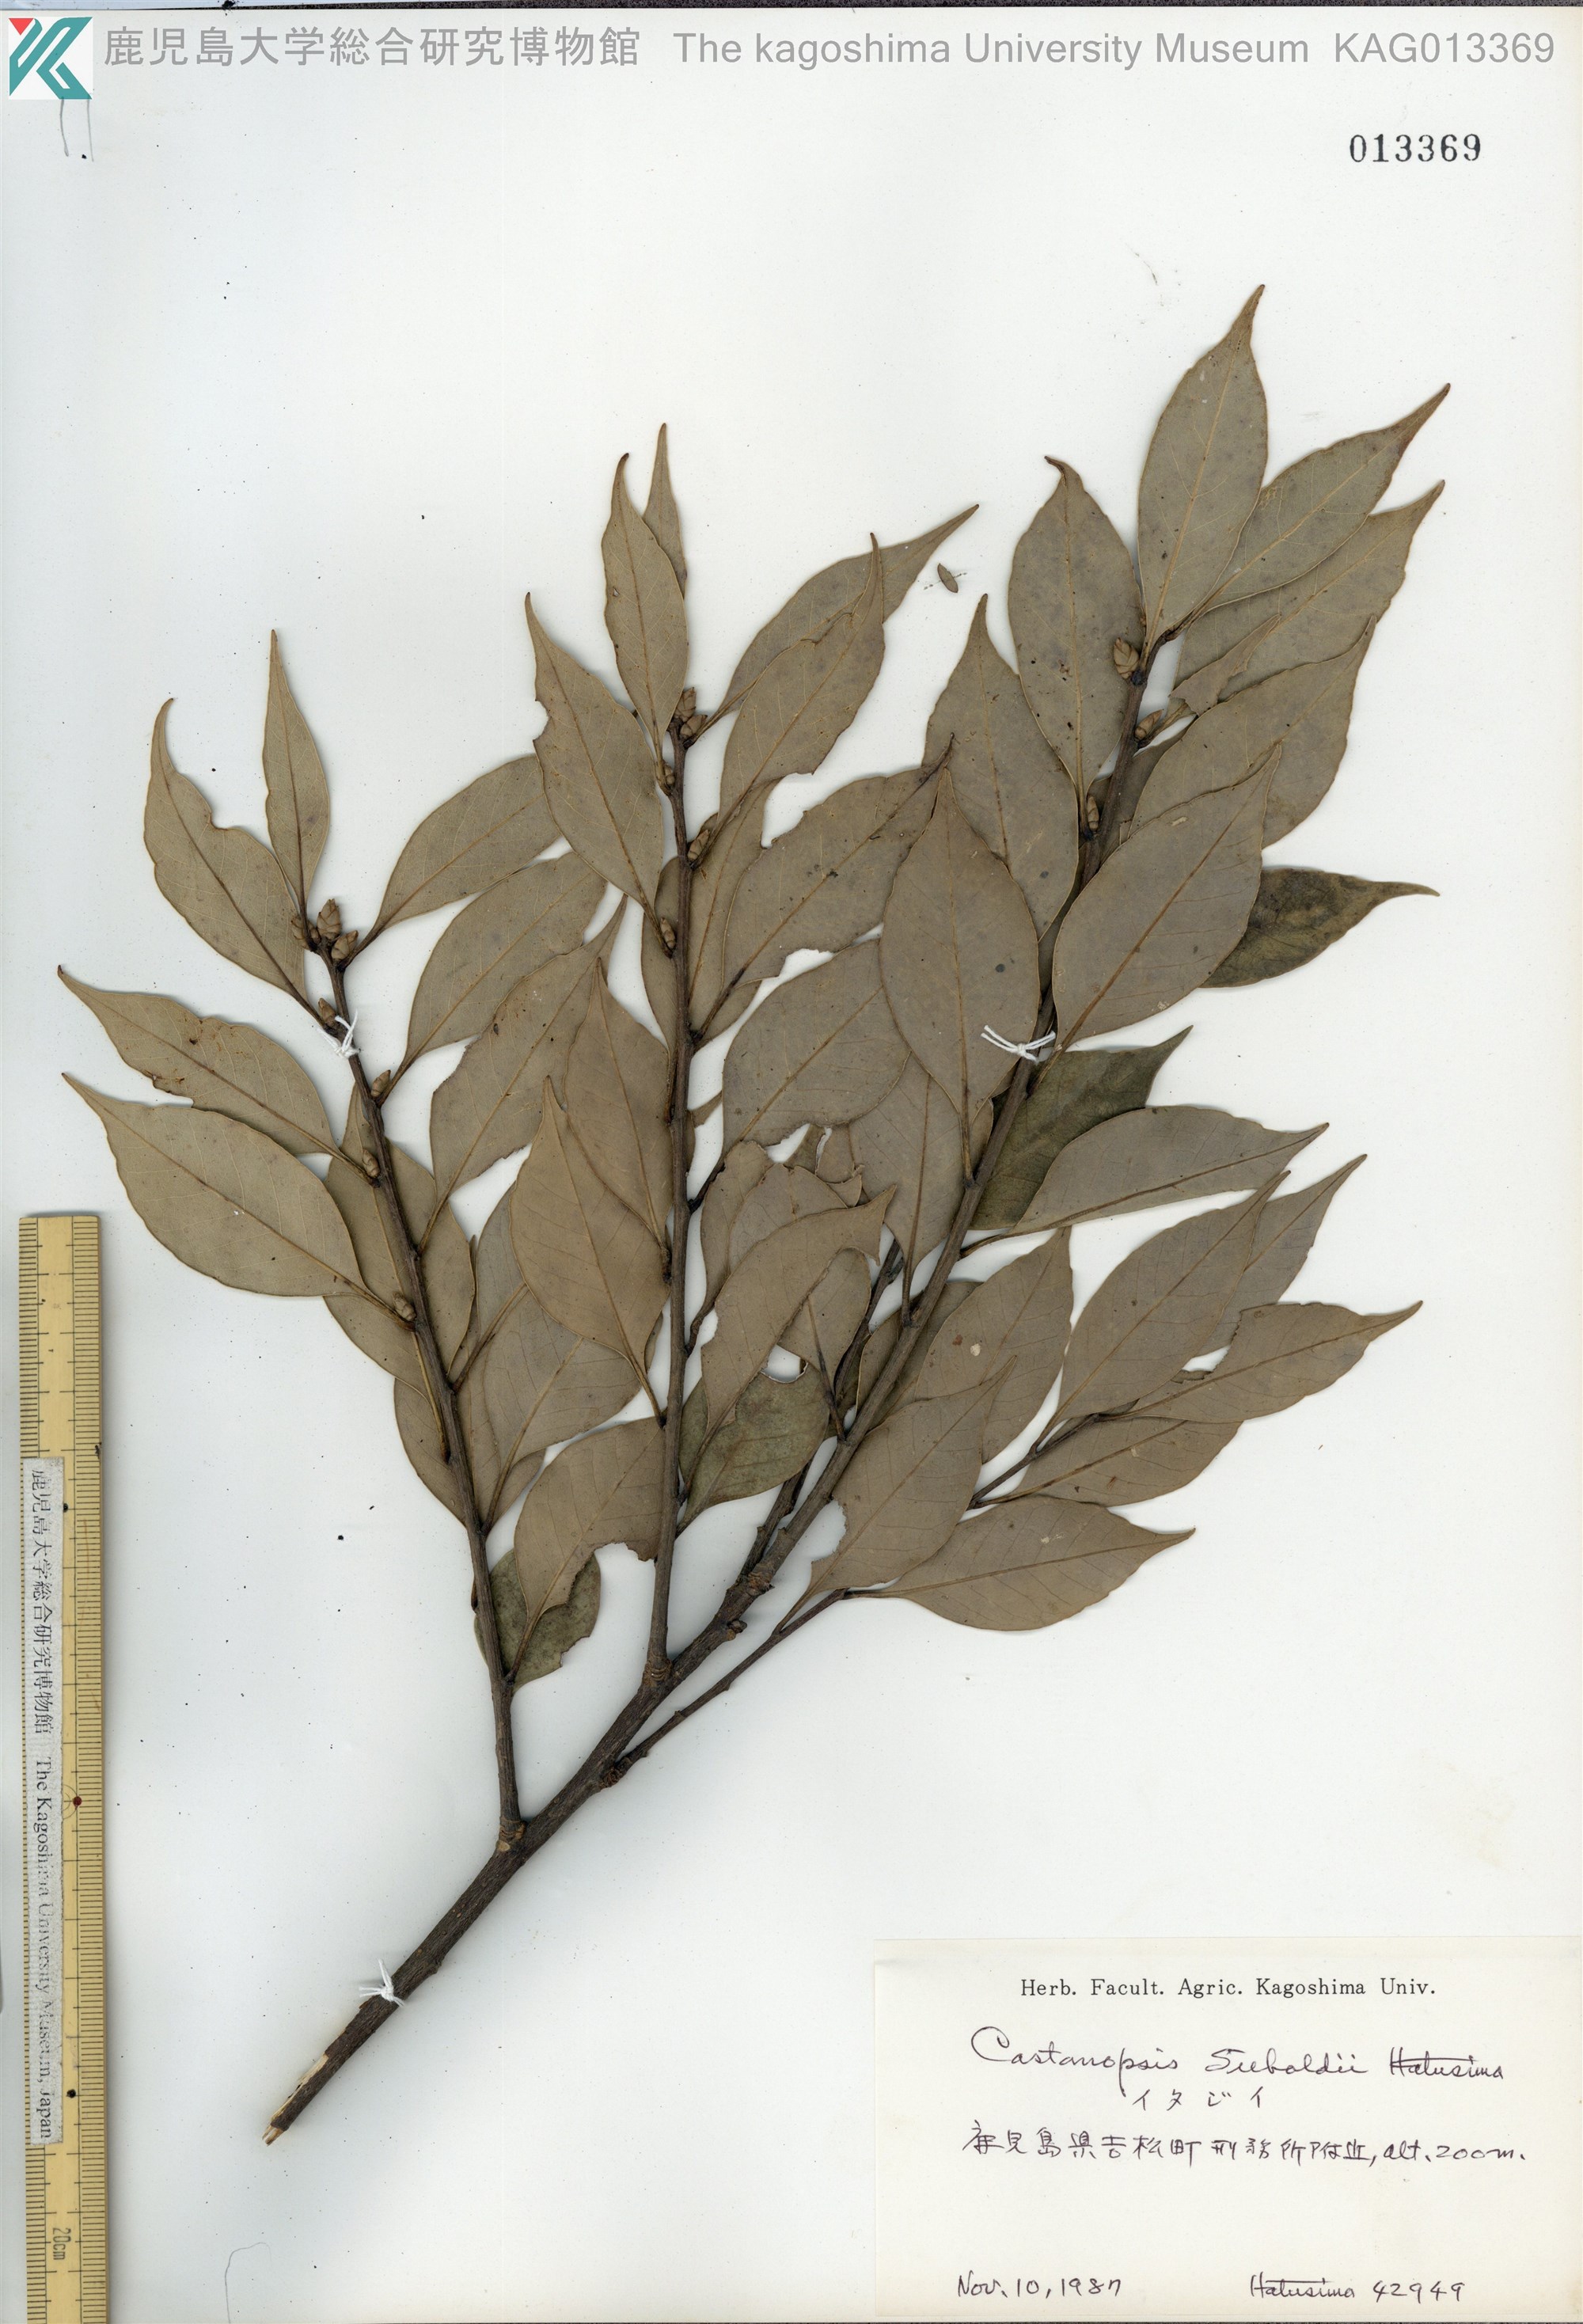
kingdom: Plantae
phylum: Tracheophyta
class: Magnoliopsida
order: Fagales
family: Fagaceae
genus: Castanopsis
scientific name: Castanopsis sieboldii
